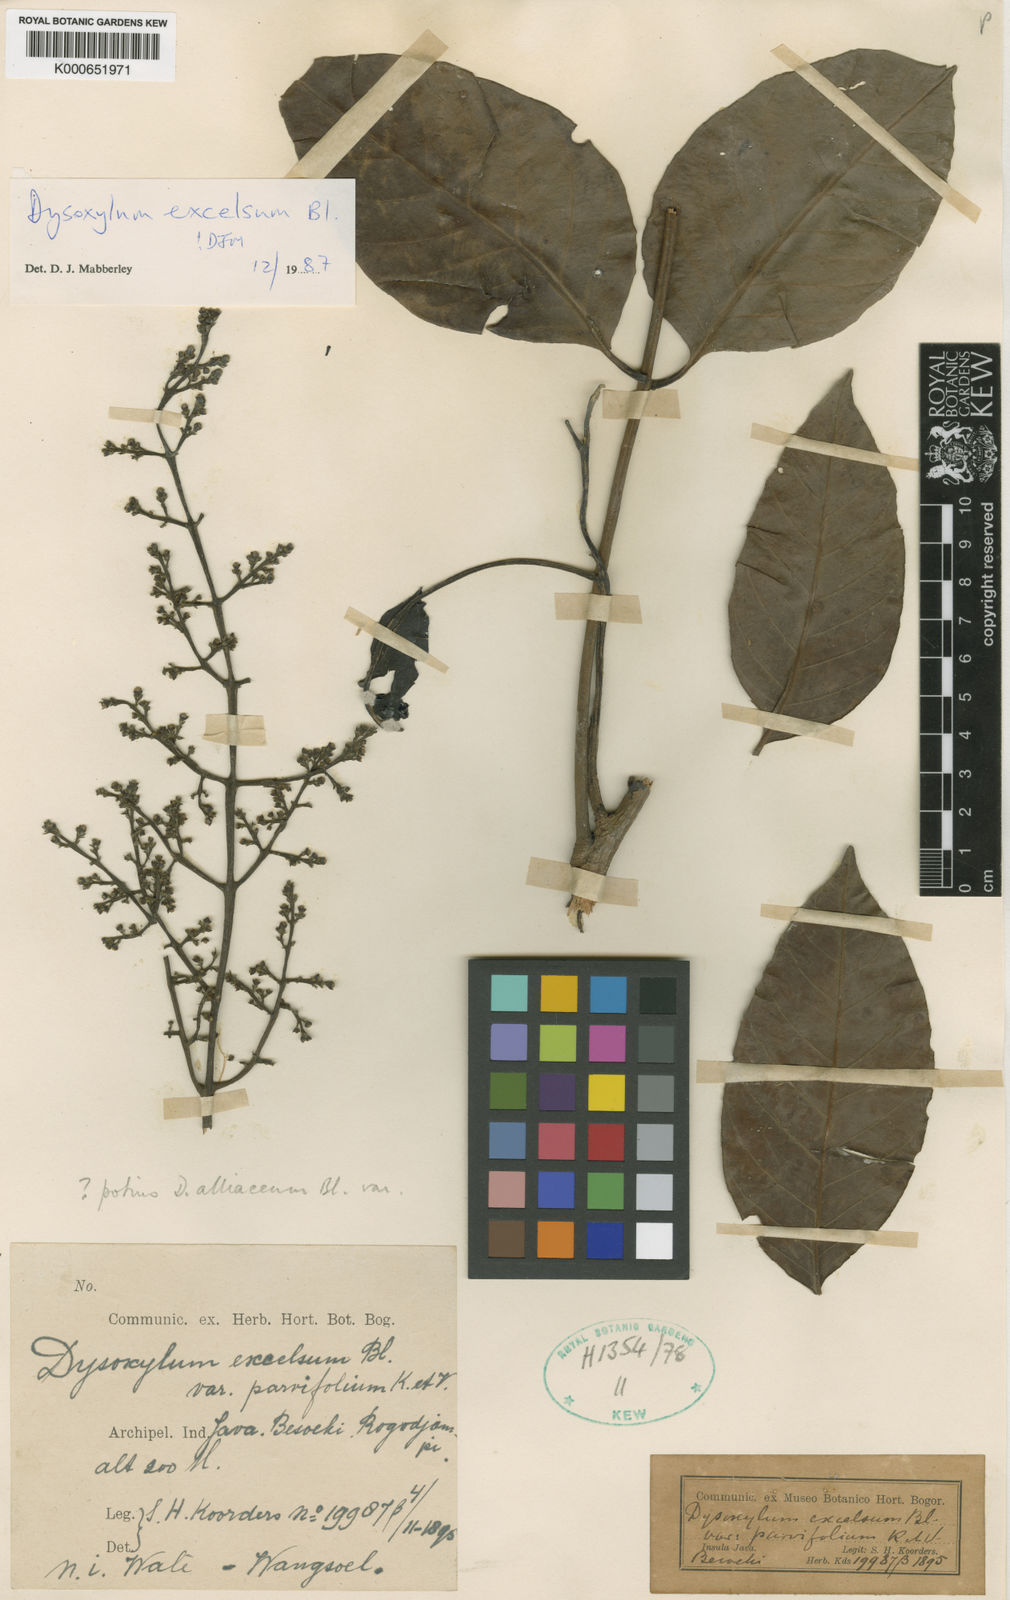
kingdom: Plantae
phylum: Tracheophyta
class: Magnoliopsida
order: Sapindales
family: Meliaceae
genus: Dysoxylum
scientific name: Dysoxylum excelsum
